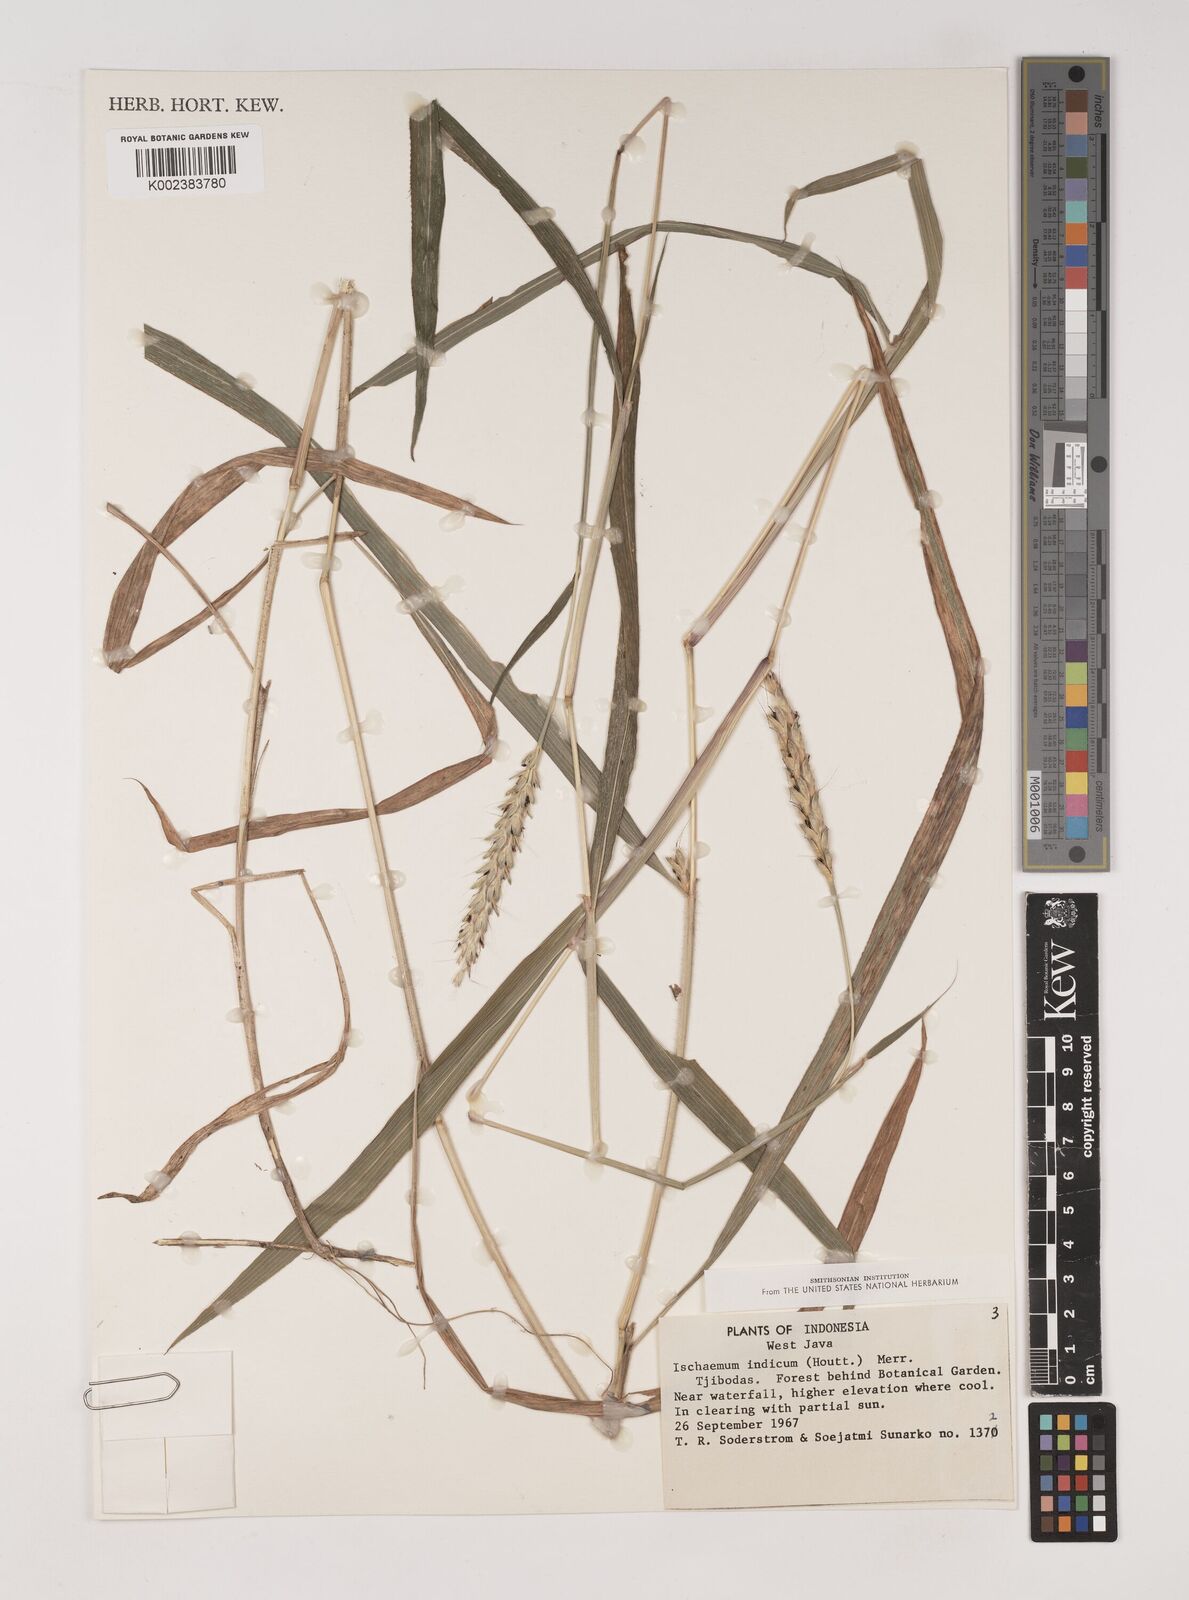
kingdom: Plantae
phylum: Tracheophyta
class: Liliopsida
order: Poales
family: Poaceae
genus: Polytrias
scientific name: Polytrias indica
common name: Indian murainagrass
